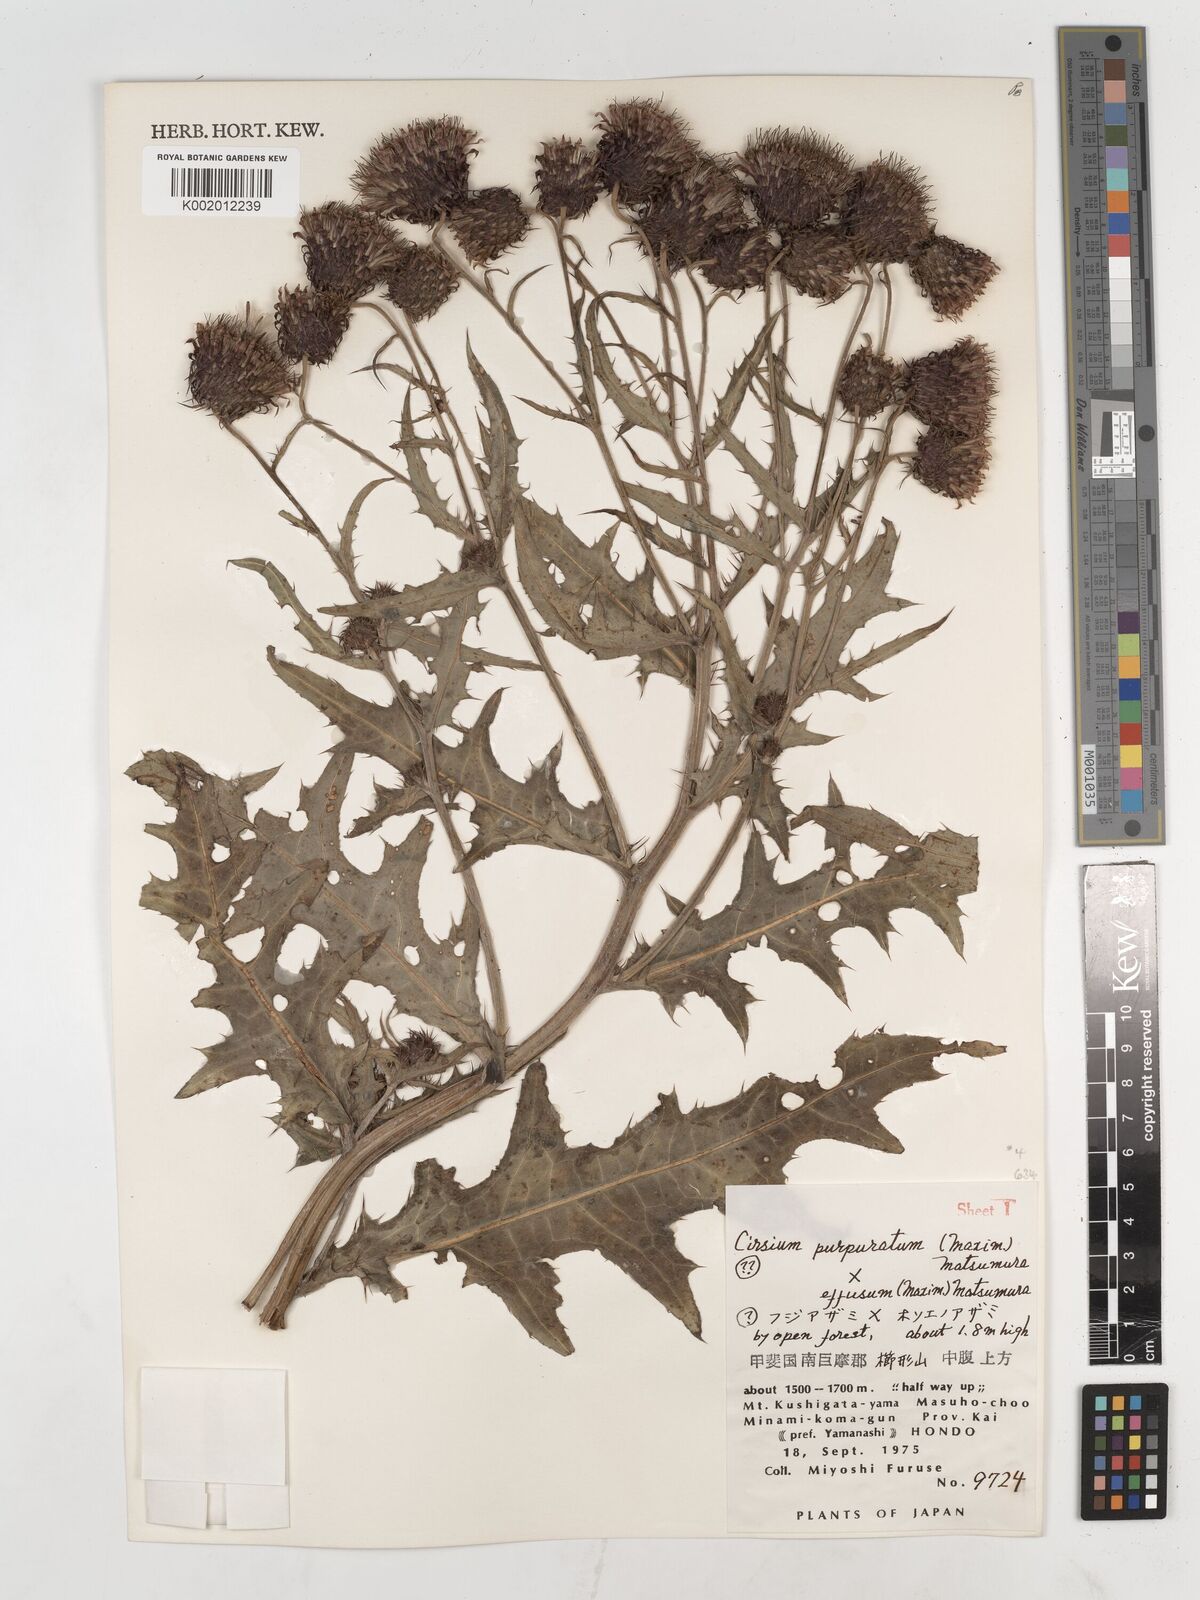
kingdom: Plantae
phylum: Tracheophyta
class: Magnoliopsida
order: Asterales
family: Asteraceae
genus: Cirsium
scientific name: Cirsium purpuratum
